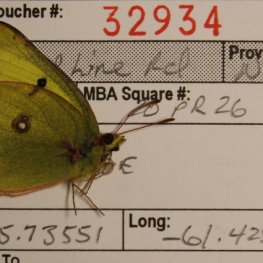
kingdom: Animalia
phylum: Arthropoda
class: Insecta
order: Lepidoptera
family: Pieridae
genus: Colias
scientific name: Colias philodice
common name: Clouded Sulphur
